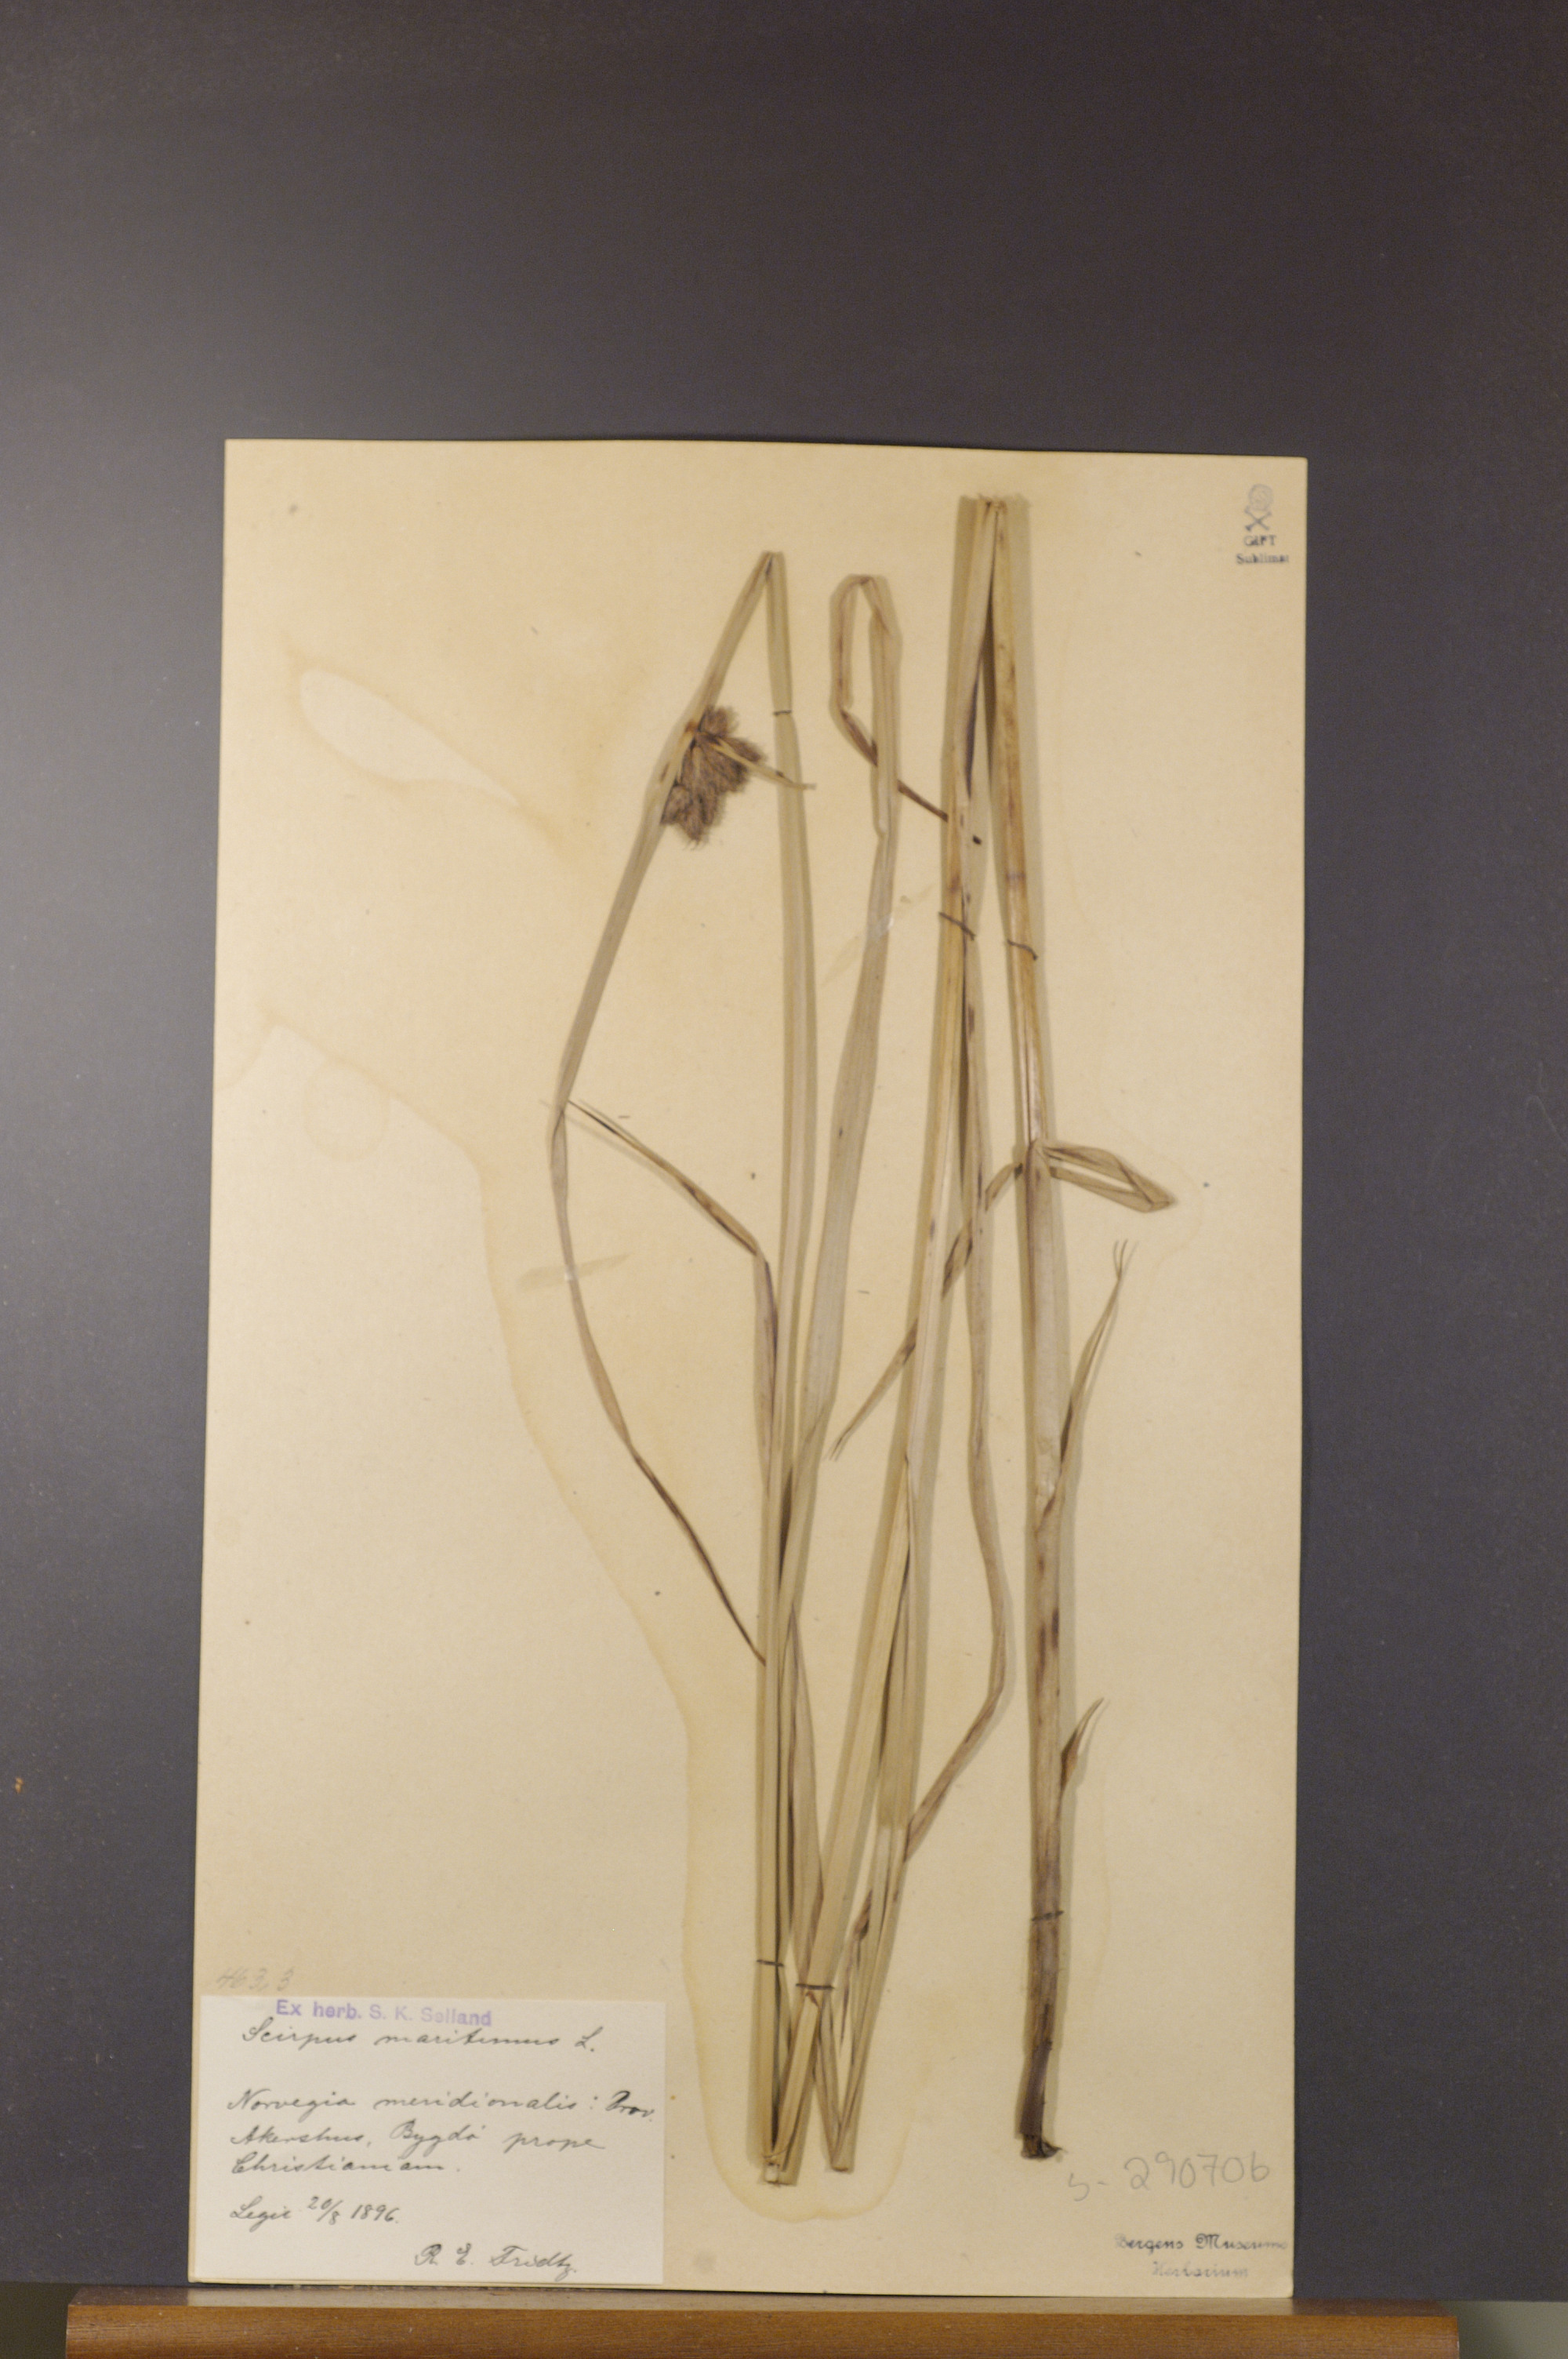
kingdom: Plantae
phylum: Tracheophyta
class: Liliopsida
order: Poales
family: Cyperaceae
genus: Bolboschoenus
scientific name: Bolboschoenus maritimus
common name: Sea club-rush
